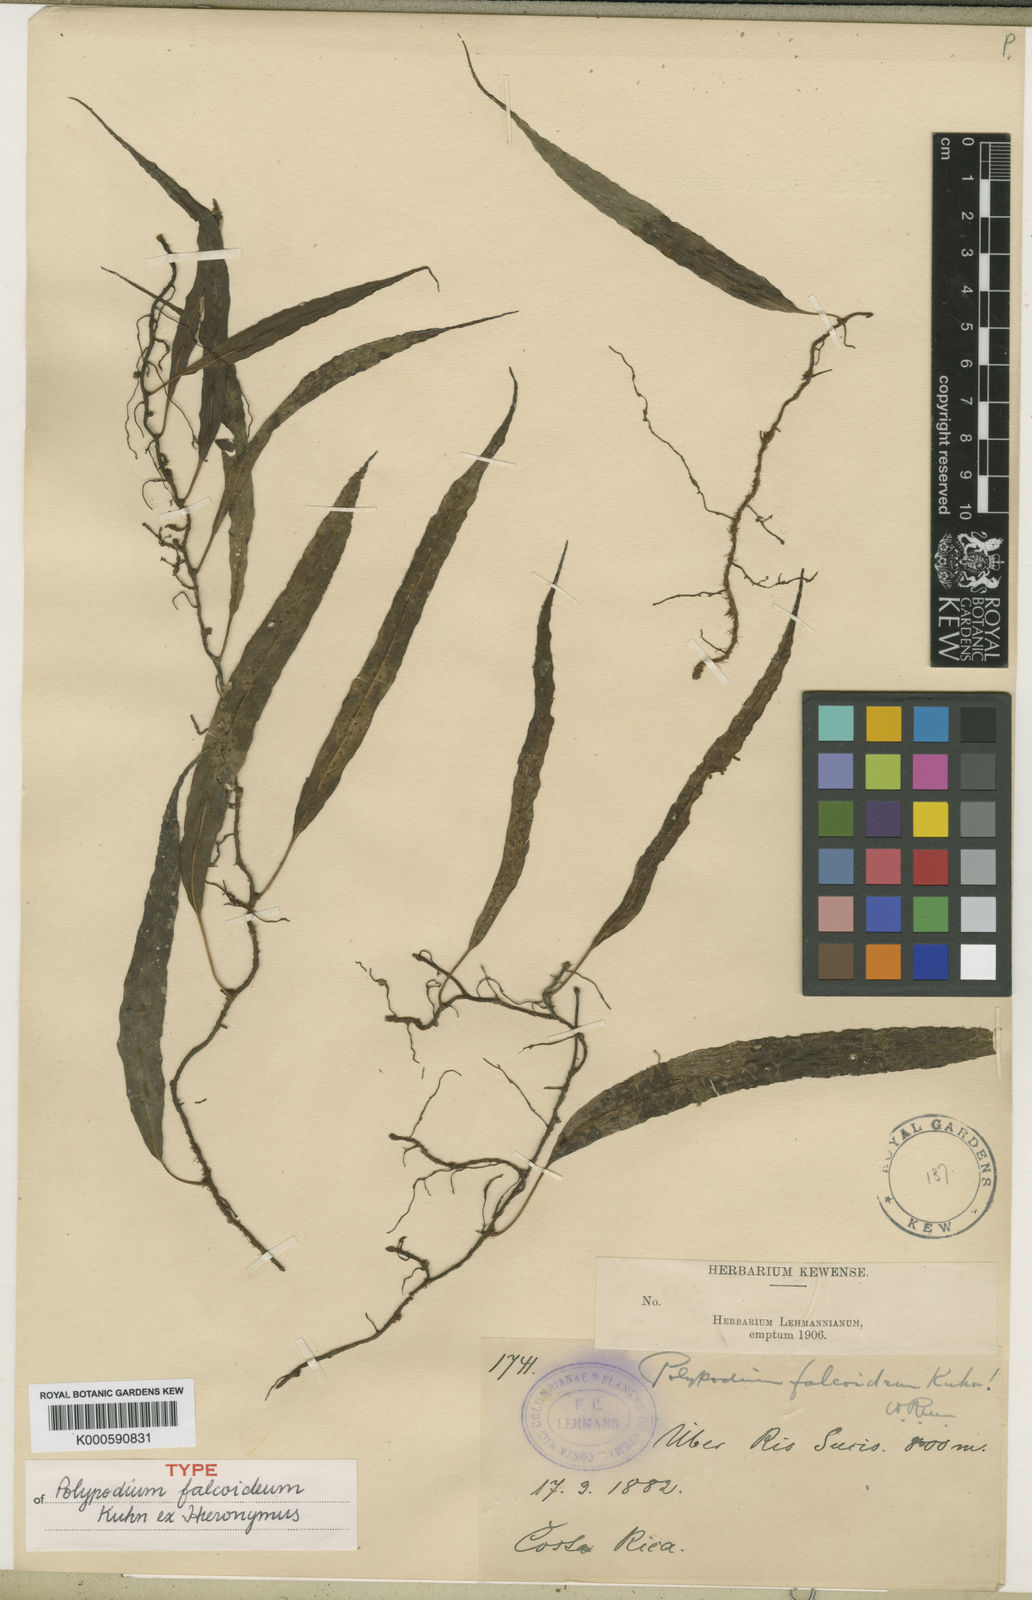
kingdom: Plantae
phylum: Tracheophyta
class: Polypodiopsida
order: Polypodiales
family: Polypodiaceae
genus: Campyloneurum
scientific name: Campyloneurum falcoideum
